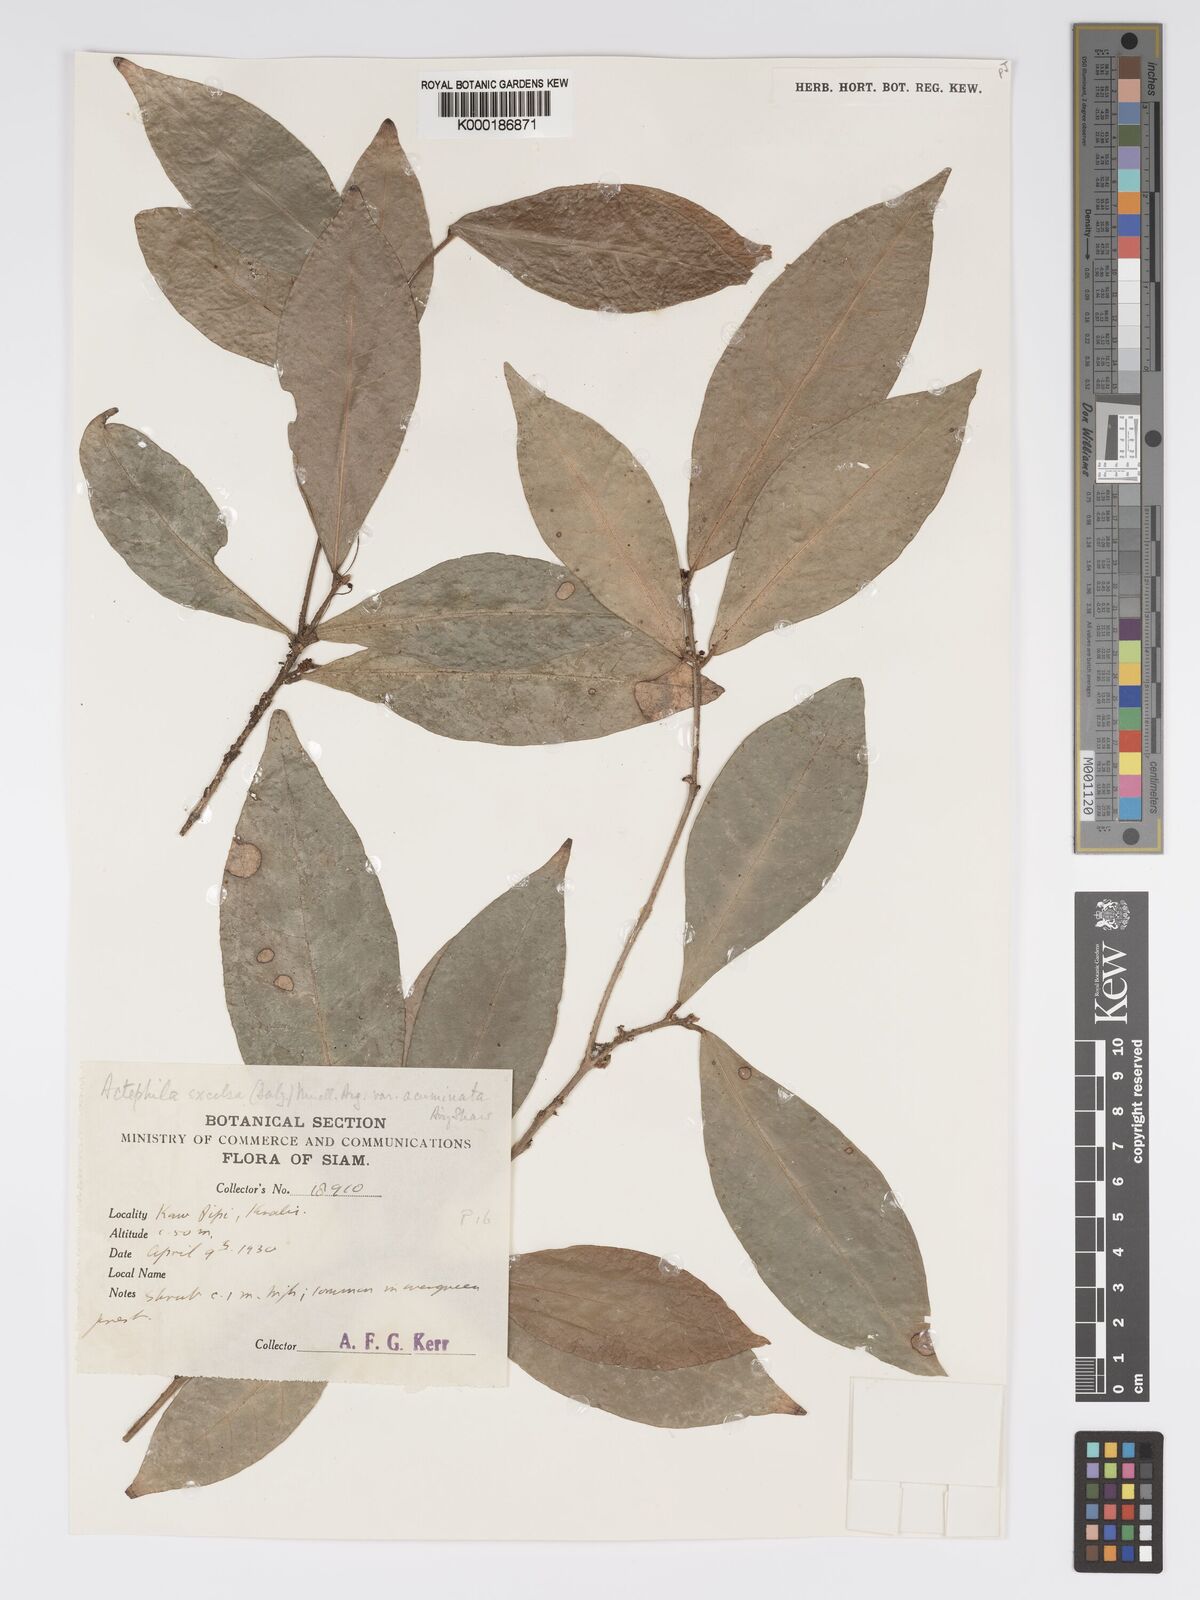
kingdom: Plantae
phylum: Tracheophyta
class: Magnoliopsida
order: Malpighiales
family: Phyllanthaceae
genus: Actephila
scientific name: Actephila subsessilis
